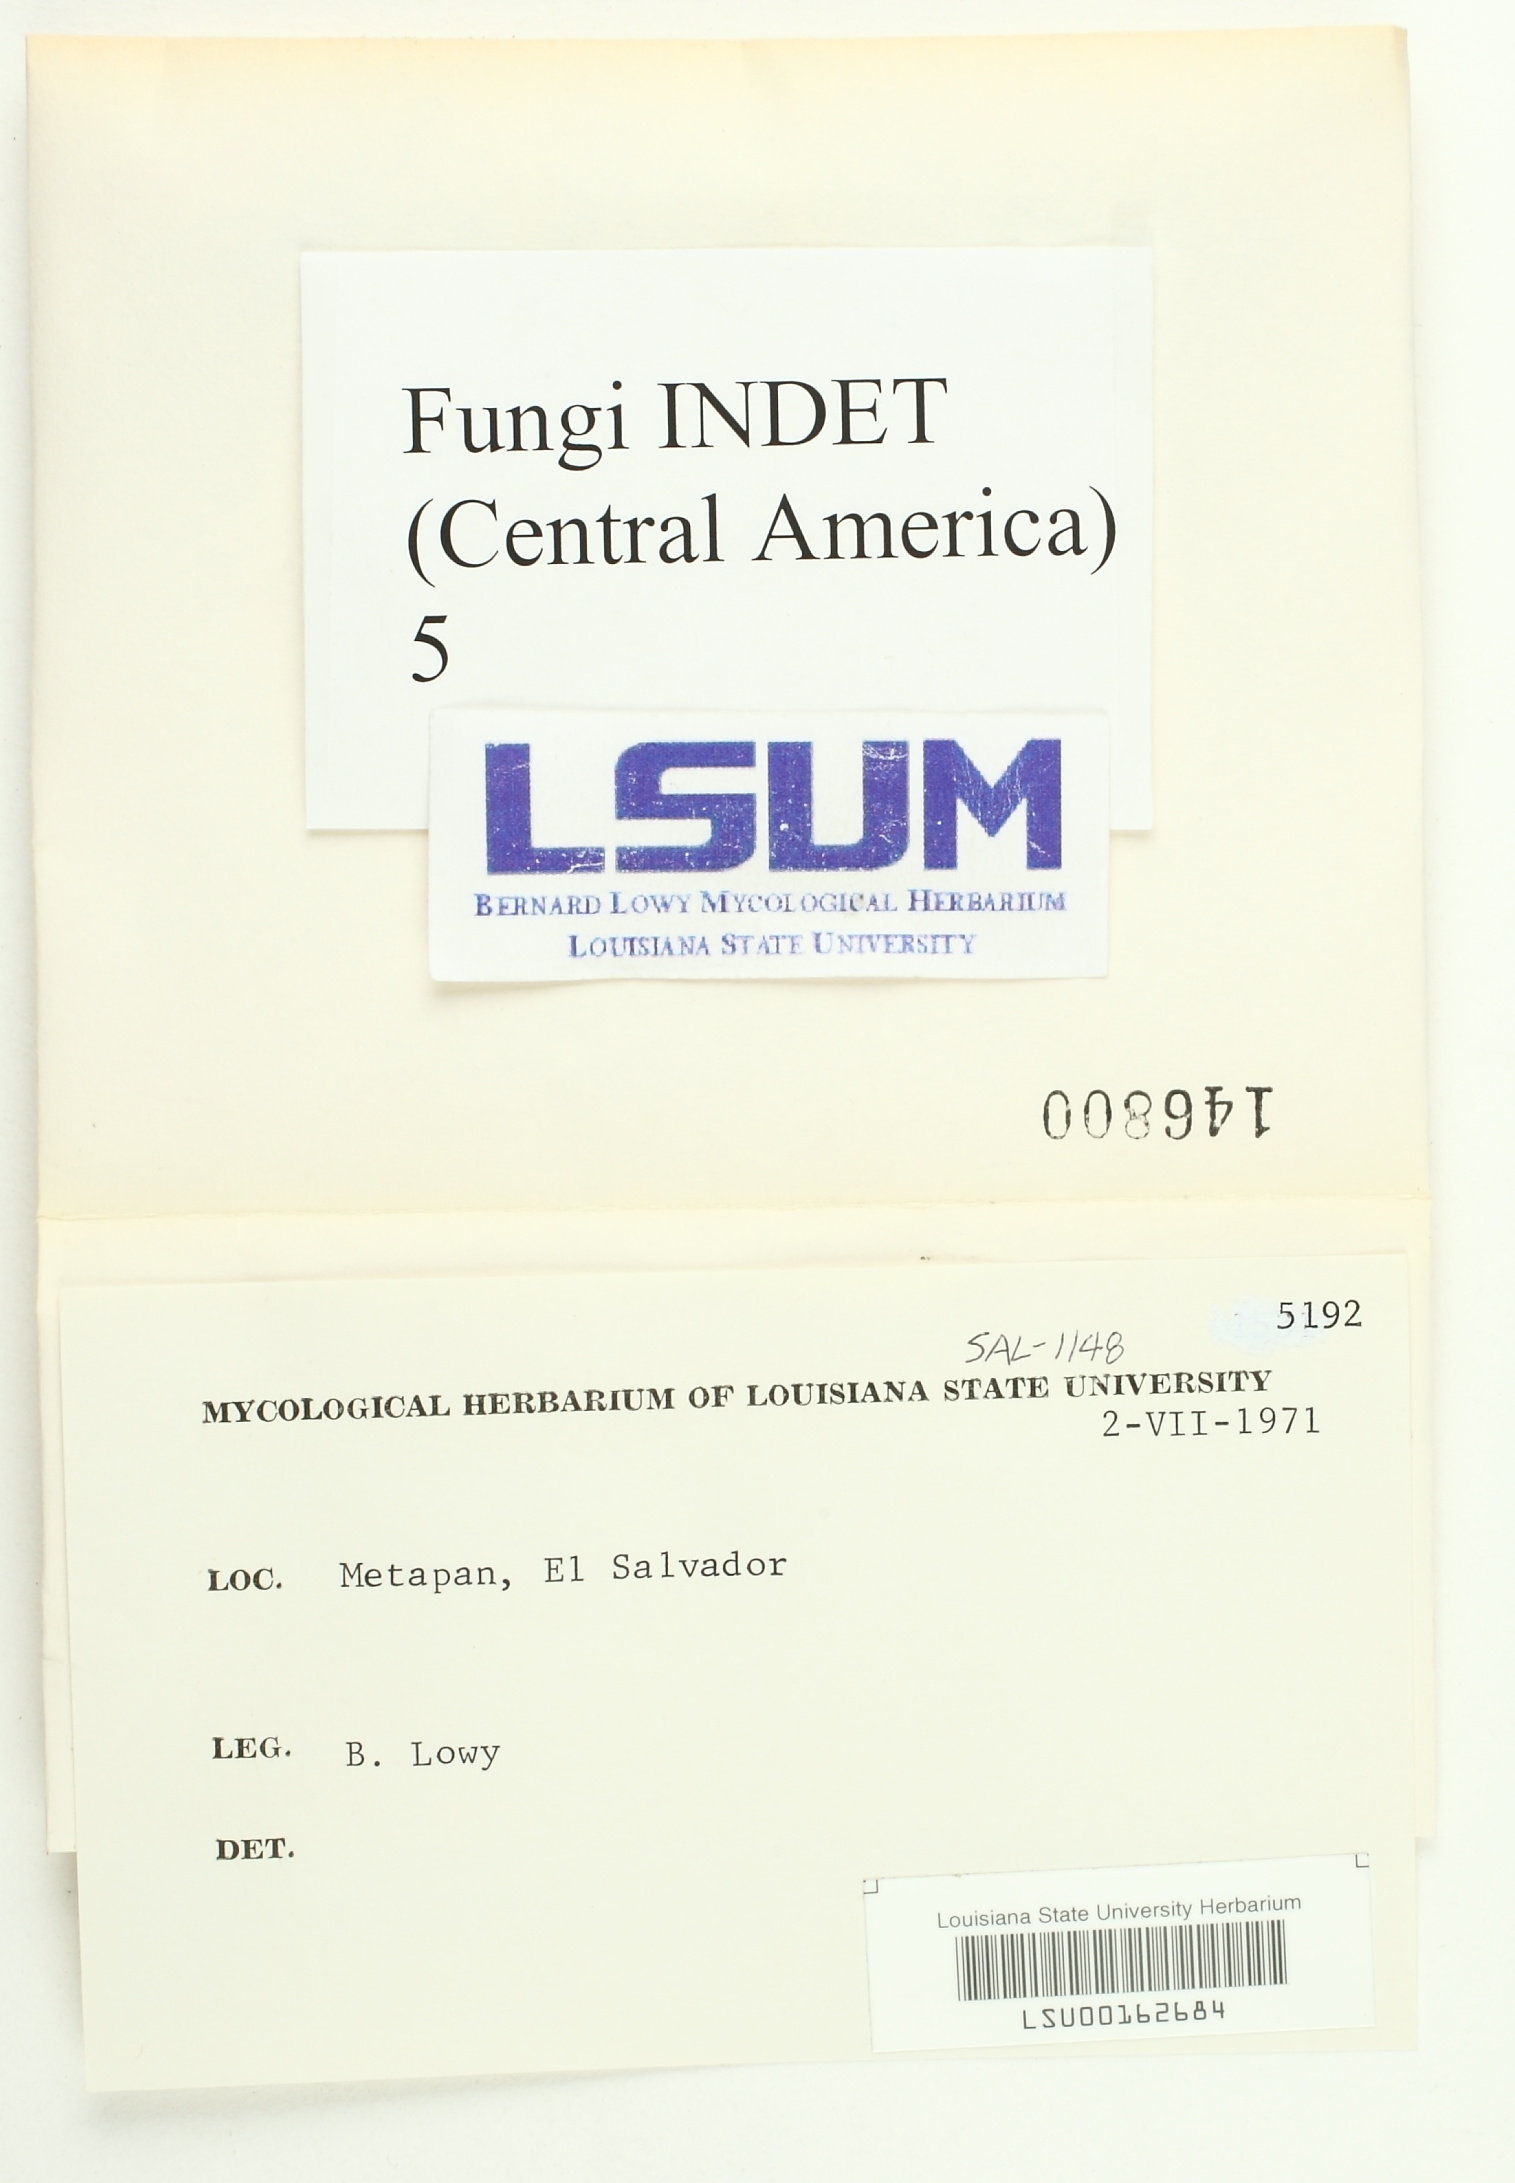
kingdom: Fungi
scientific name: Fungi
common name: Fungi
